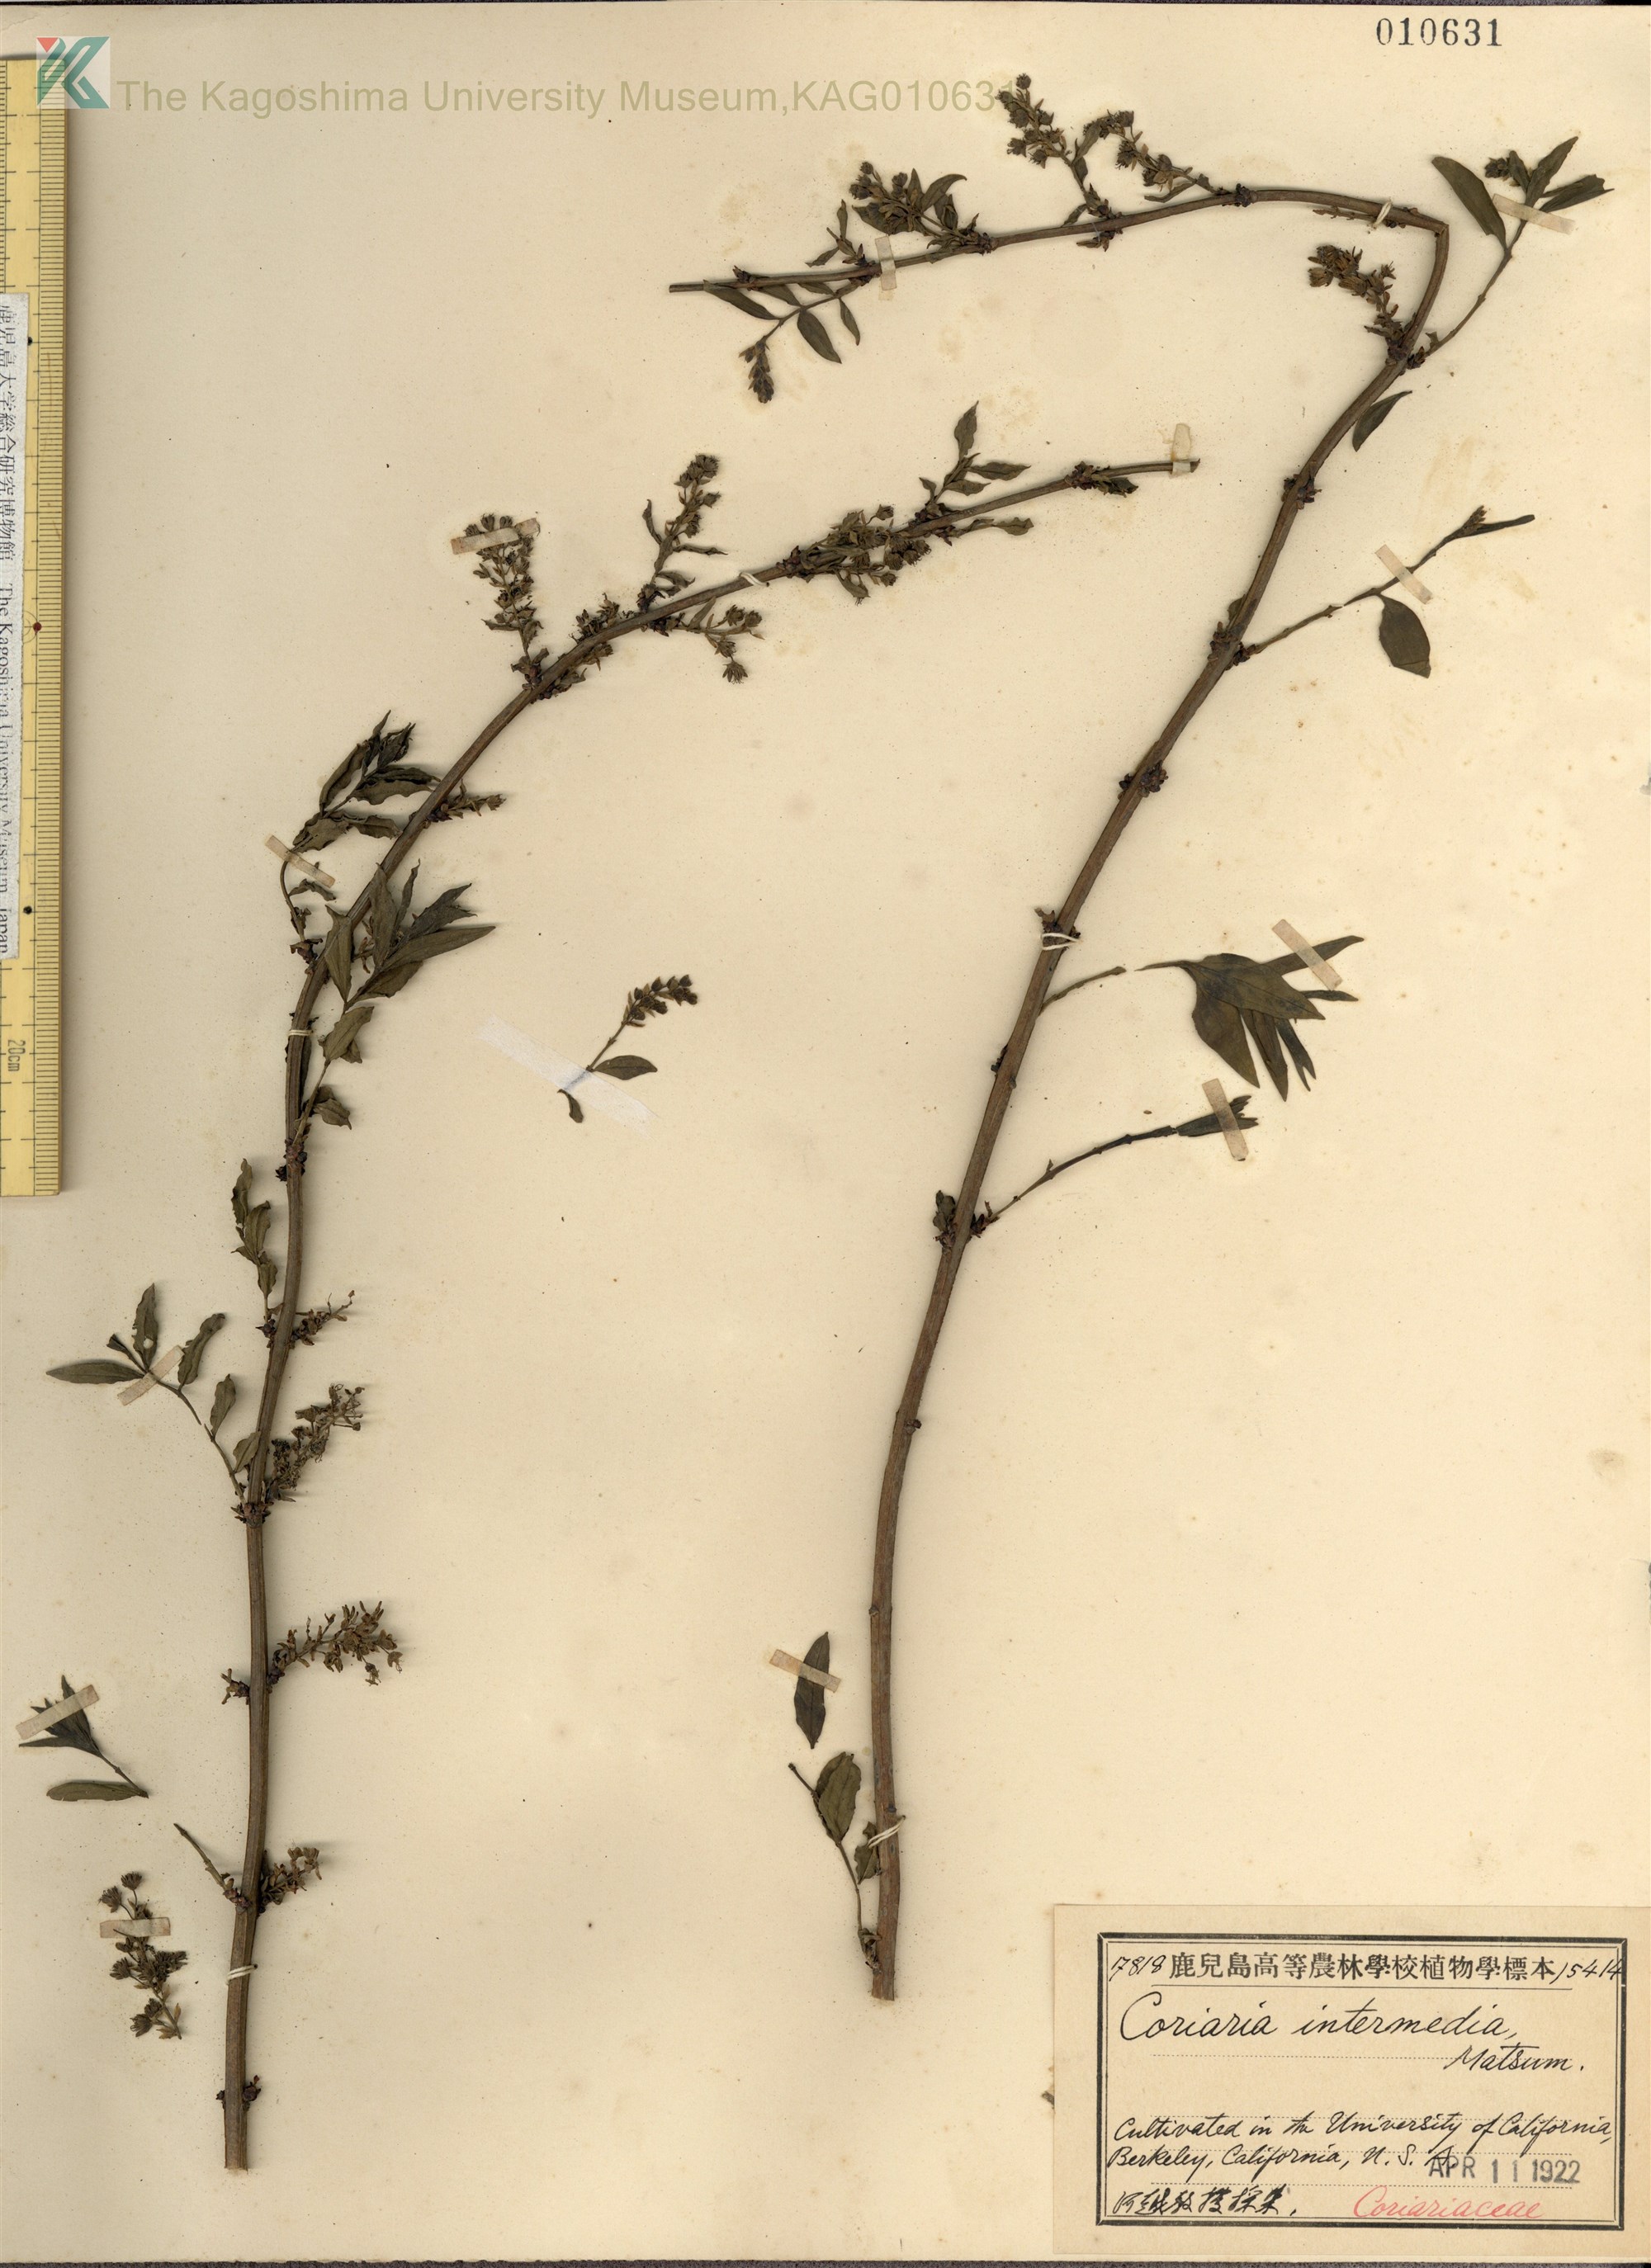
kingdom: Plantae
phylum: Tracheophyta
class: Magnoliopsida
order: Cucurbitales
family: Coriariaceae
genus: Coriaria
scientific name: Coriaria japonica
